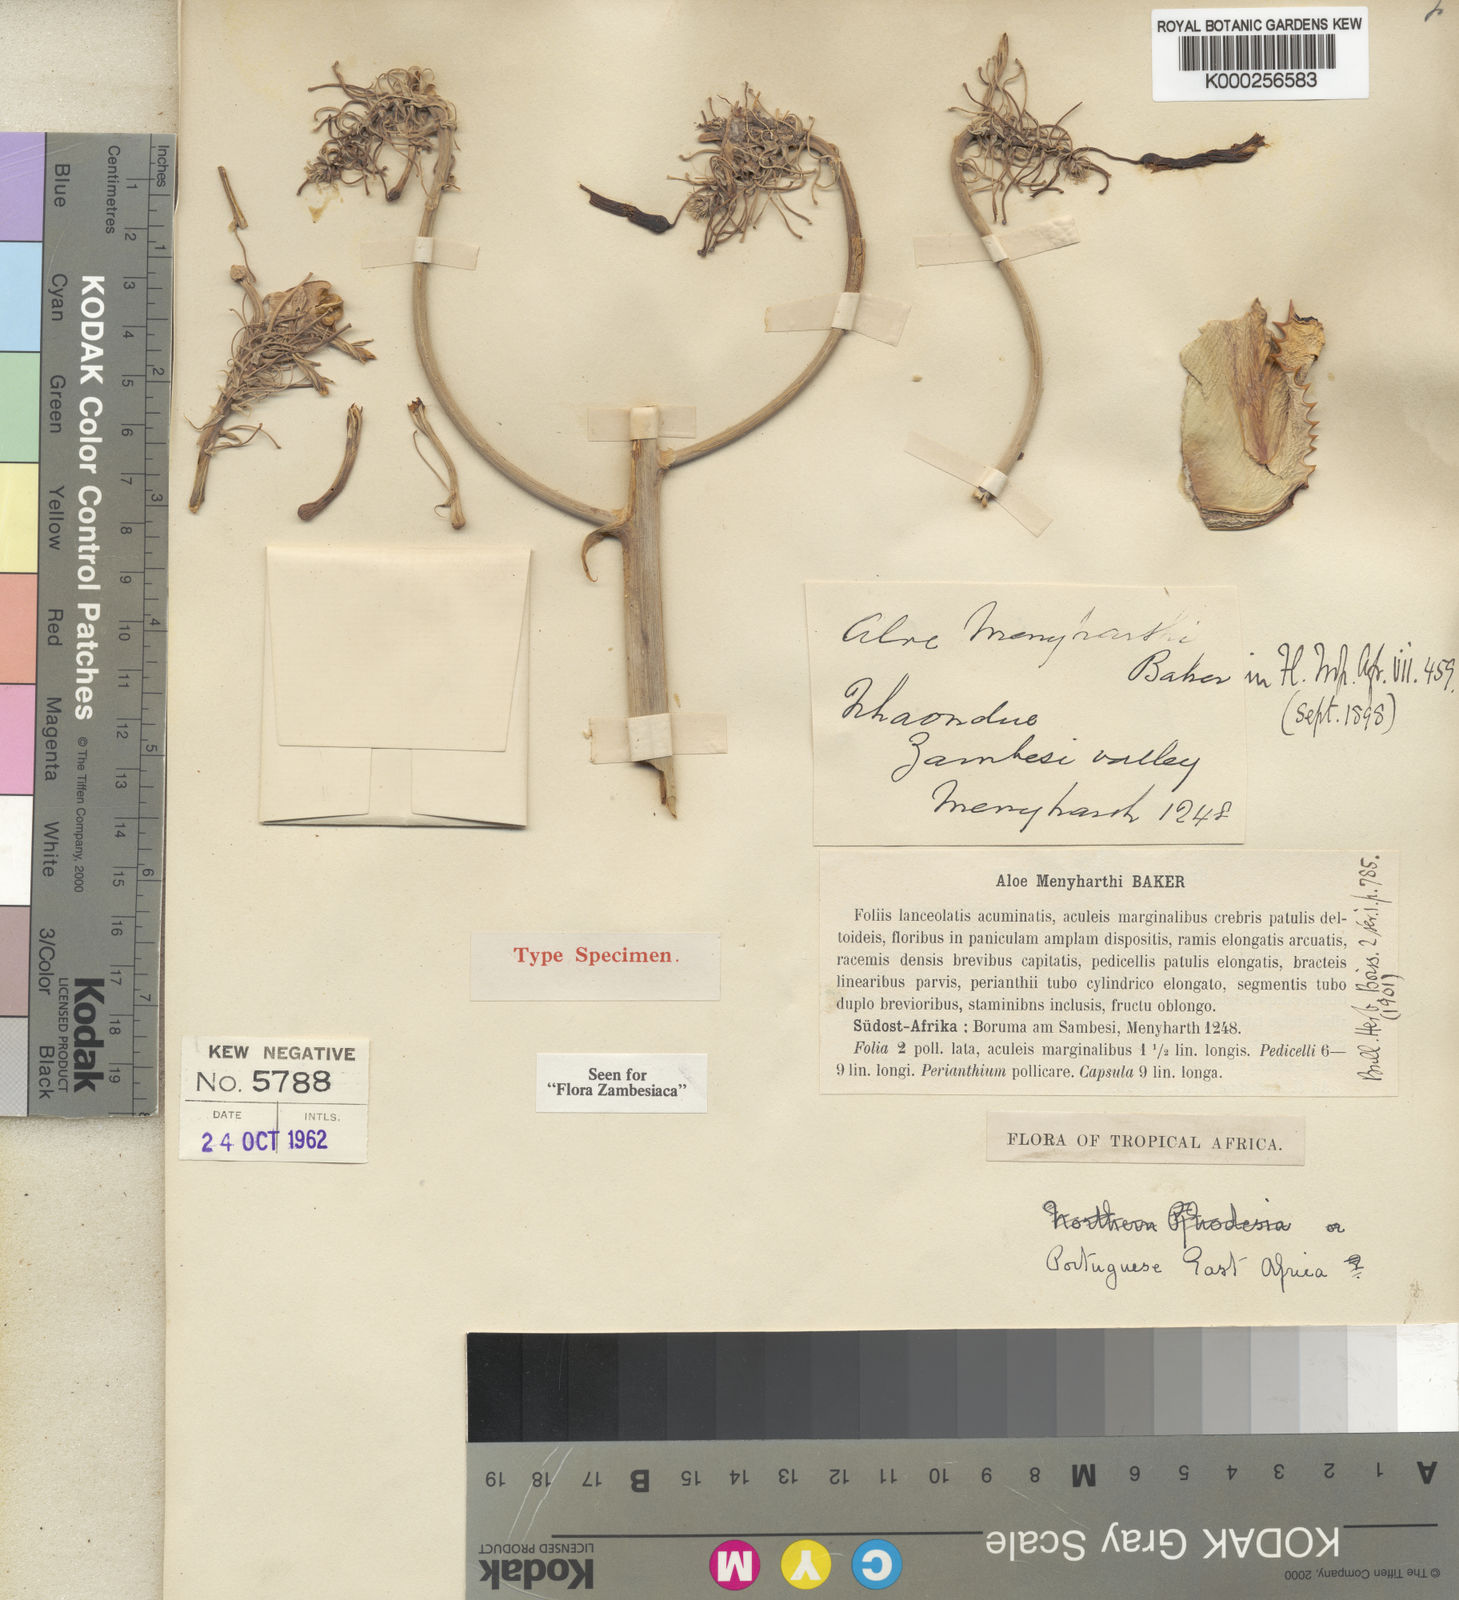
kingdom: Plantae
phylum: Tracheophyta
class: Liliopsida
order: Asparagales
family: Asphodelaceae
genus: Aloe
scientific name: Aloe menyharthii
